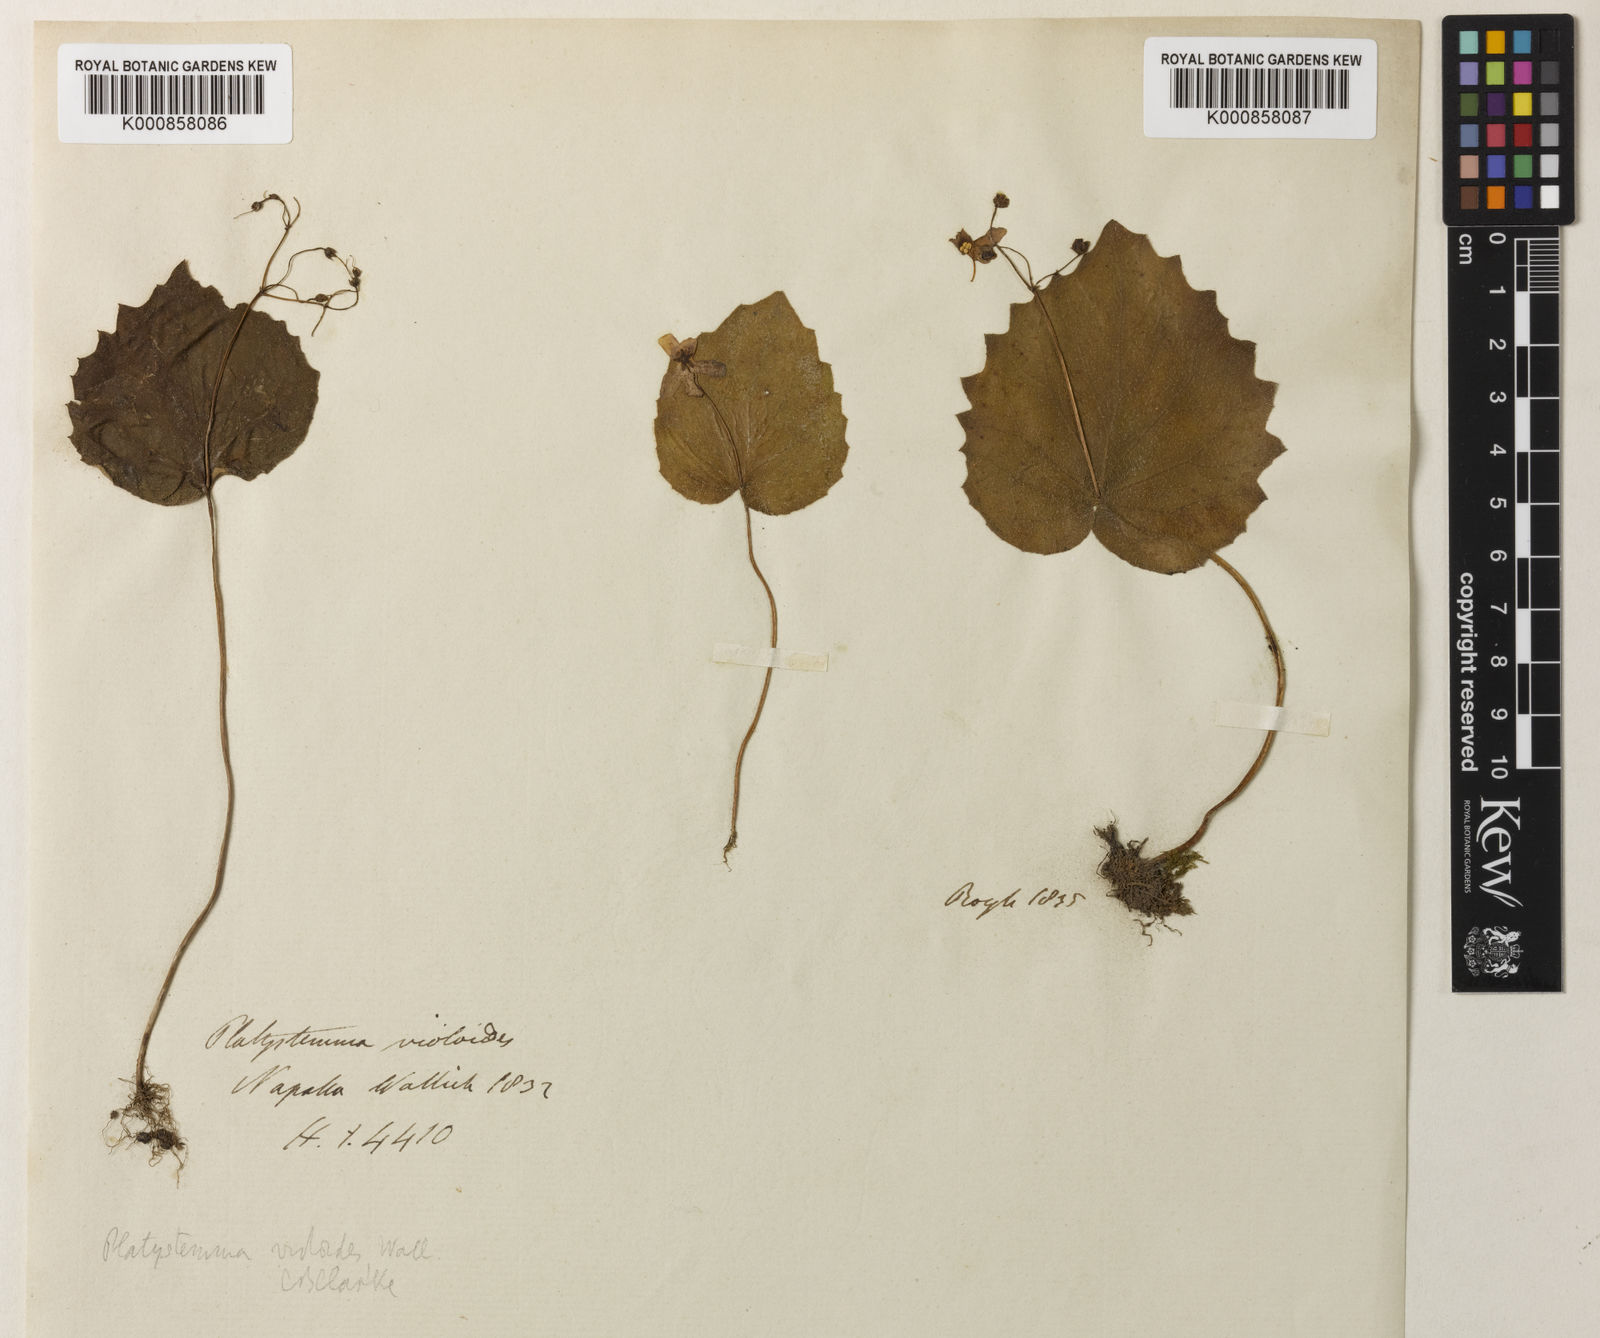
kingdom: Plantae
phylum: Tracheophyta
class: Magnoliopsida
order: Lamiales
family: Gesneriaceae
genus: Platystemma
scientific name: Platystemma violoides
